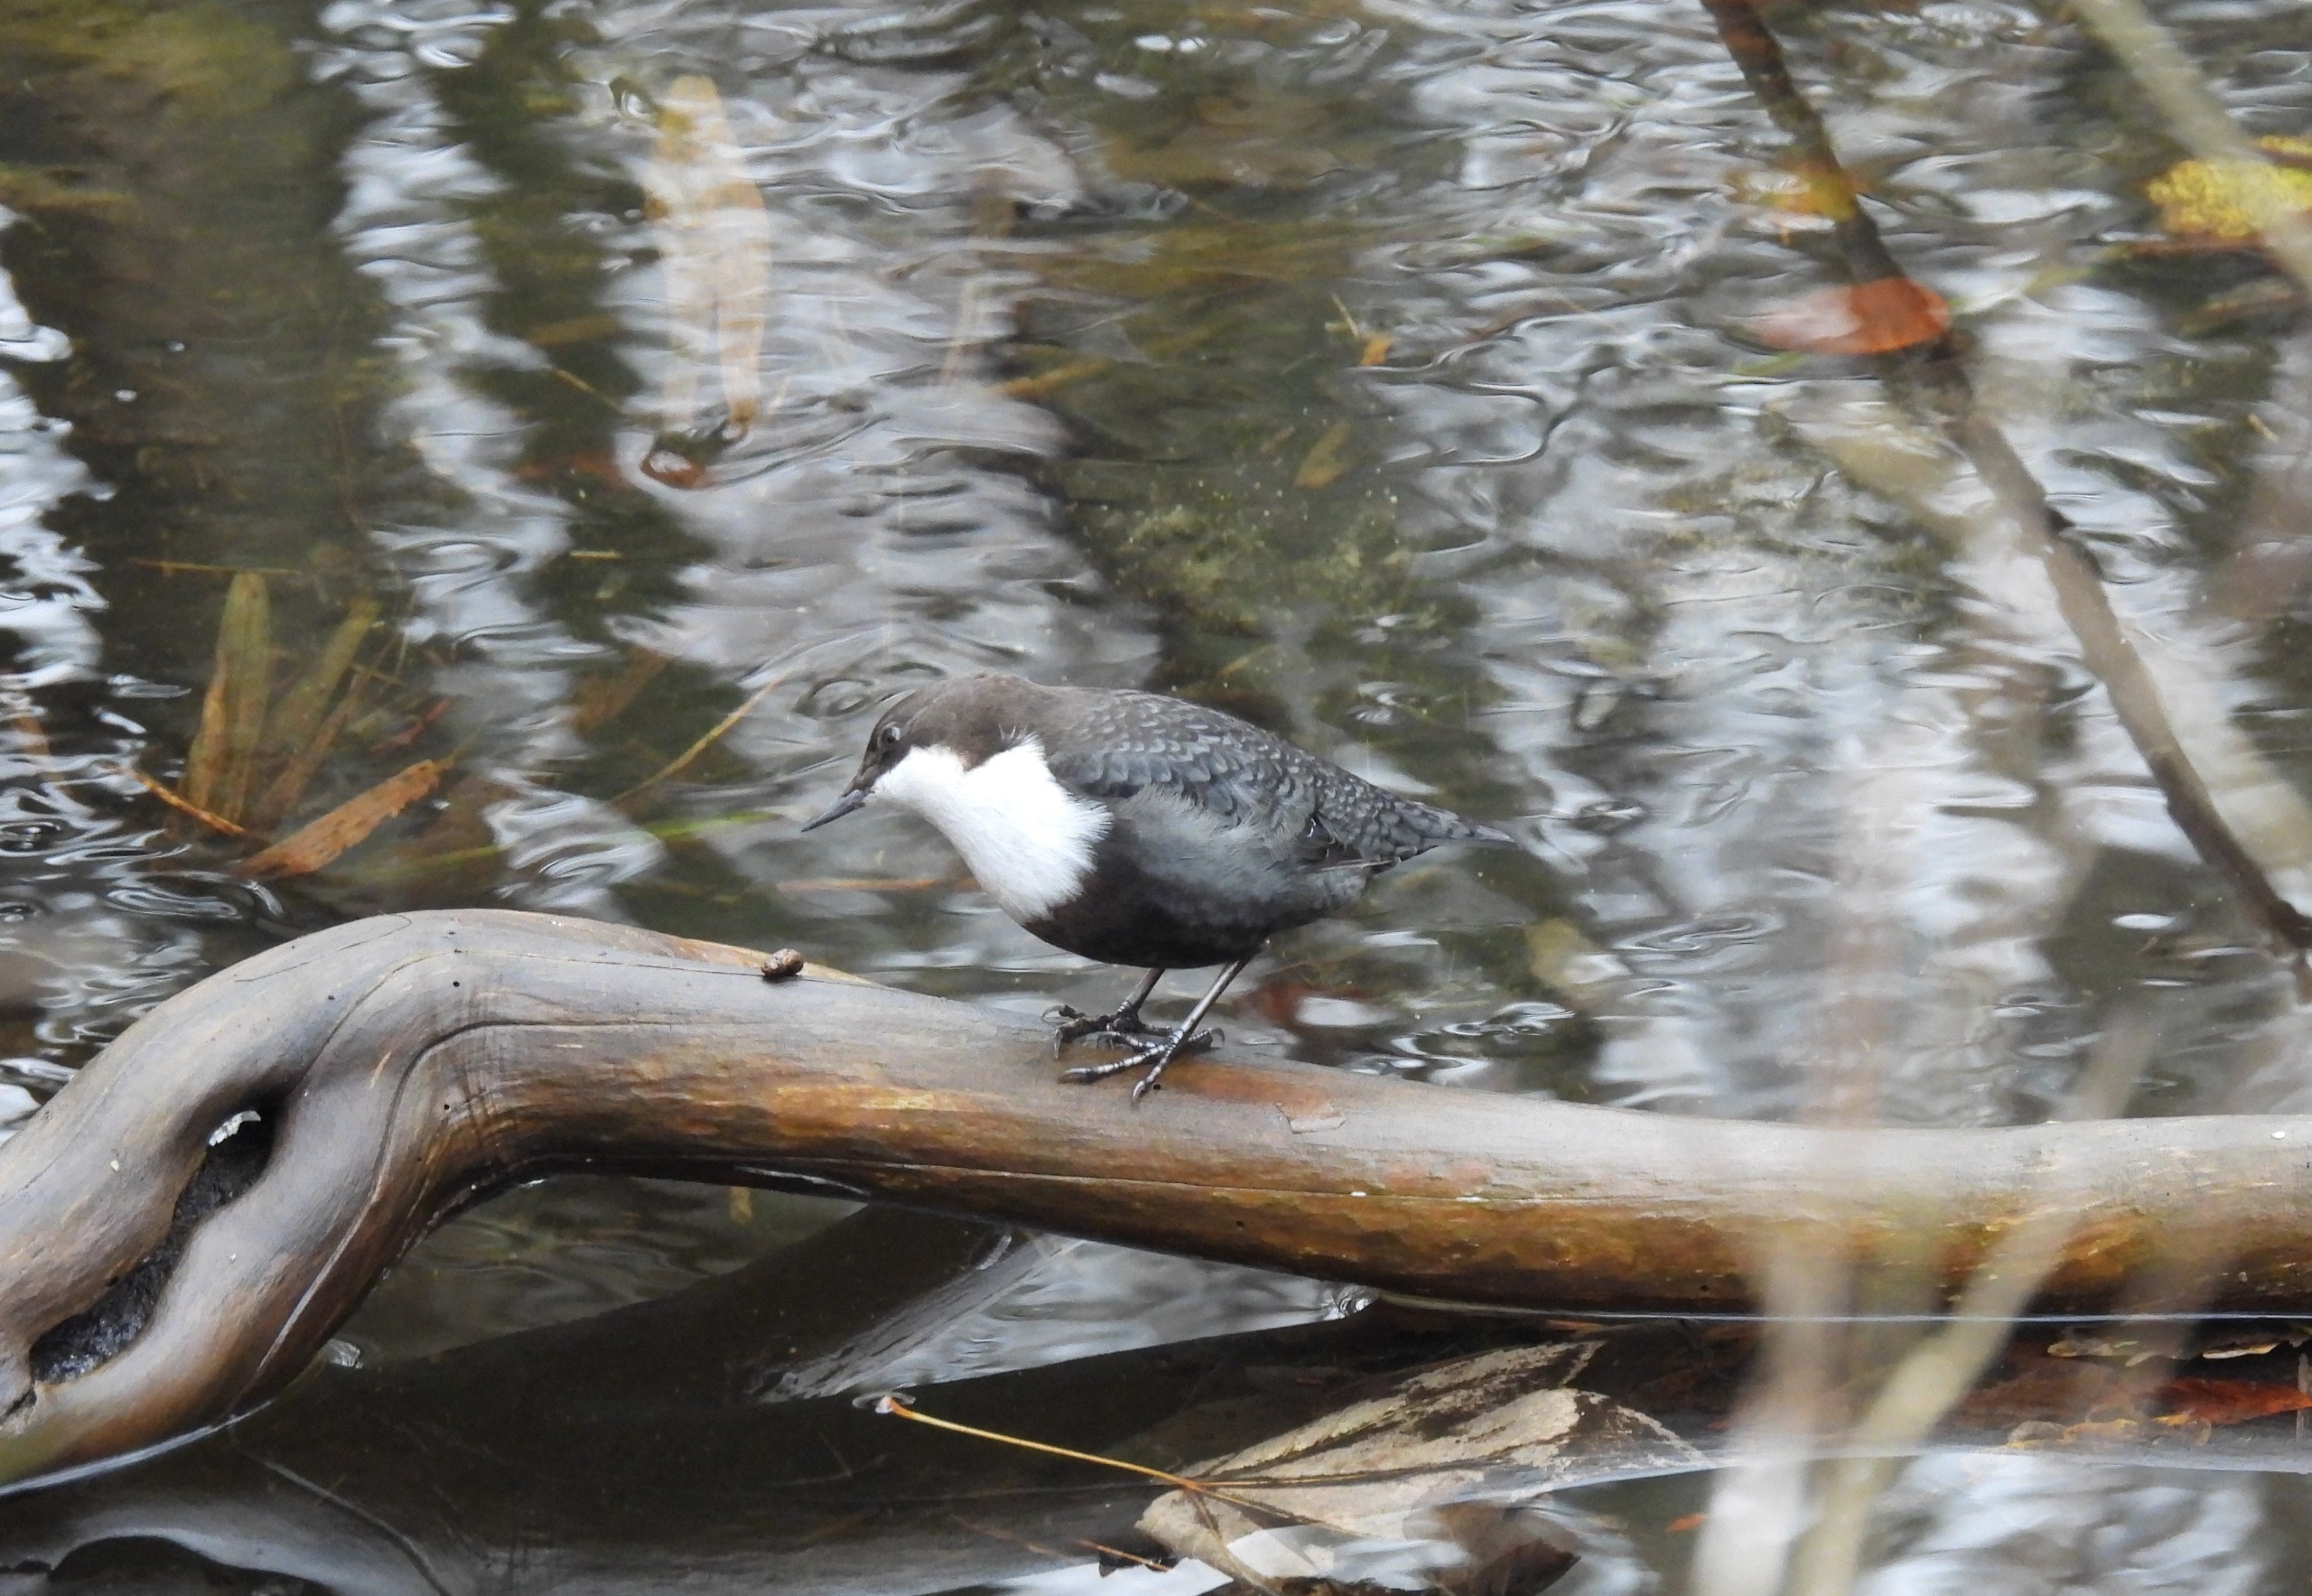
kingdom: Animalia
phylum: Chordata
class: Aves
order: Passeriformes
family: Cinclidae
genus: Cinclus
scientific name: Cinclus cinclus
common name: Vandstær
